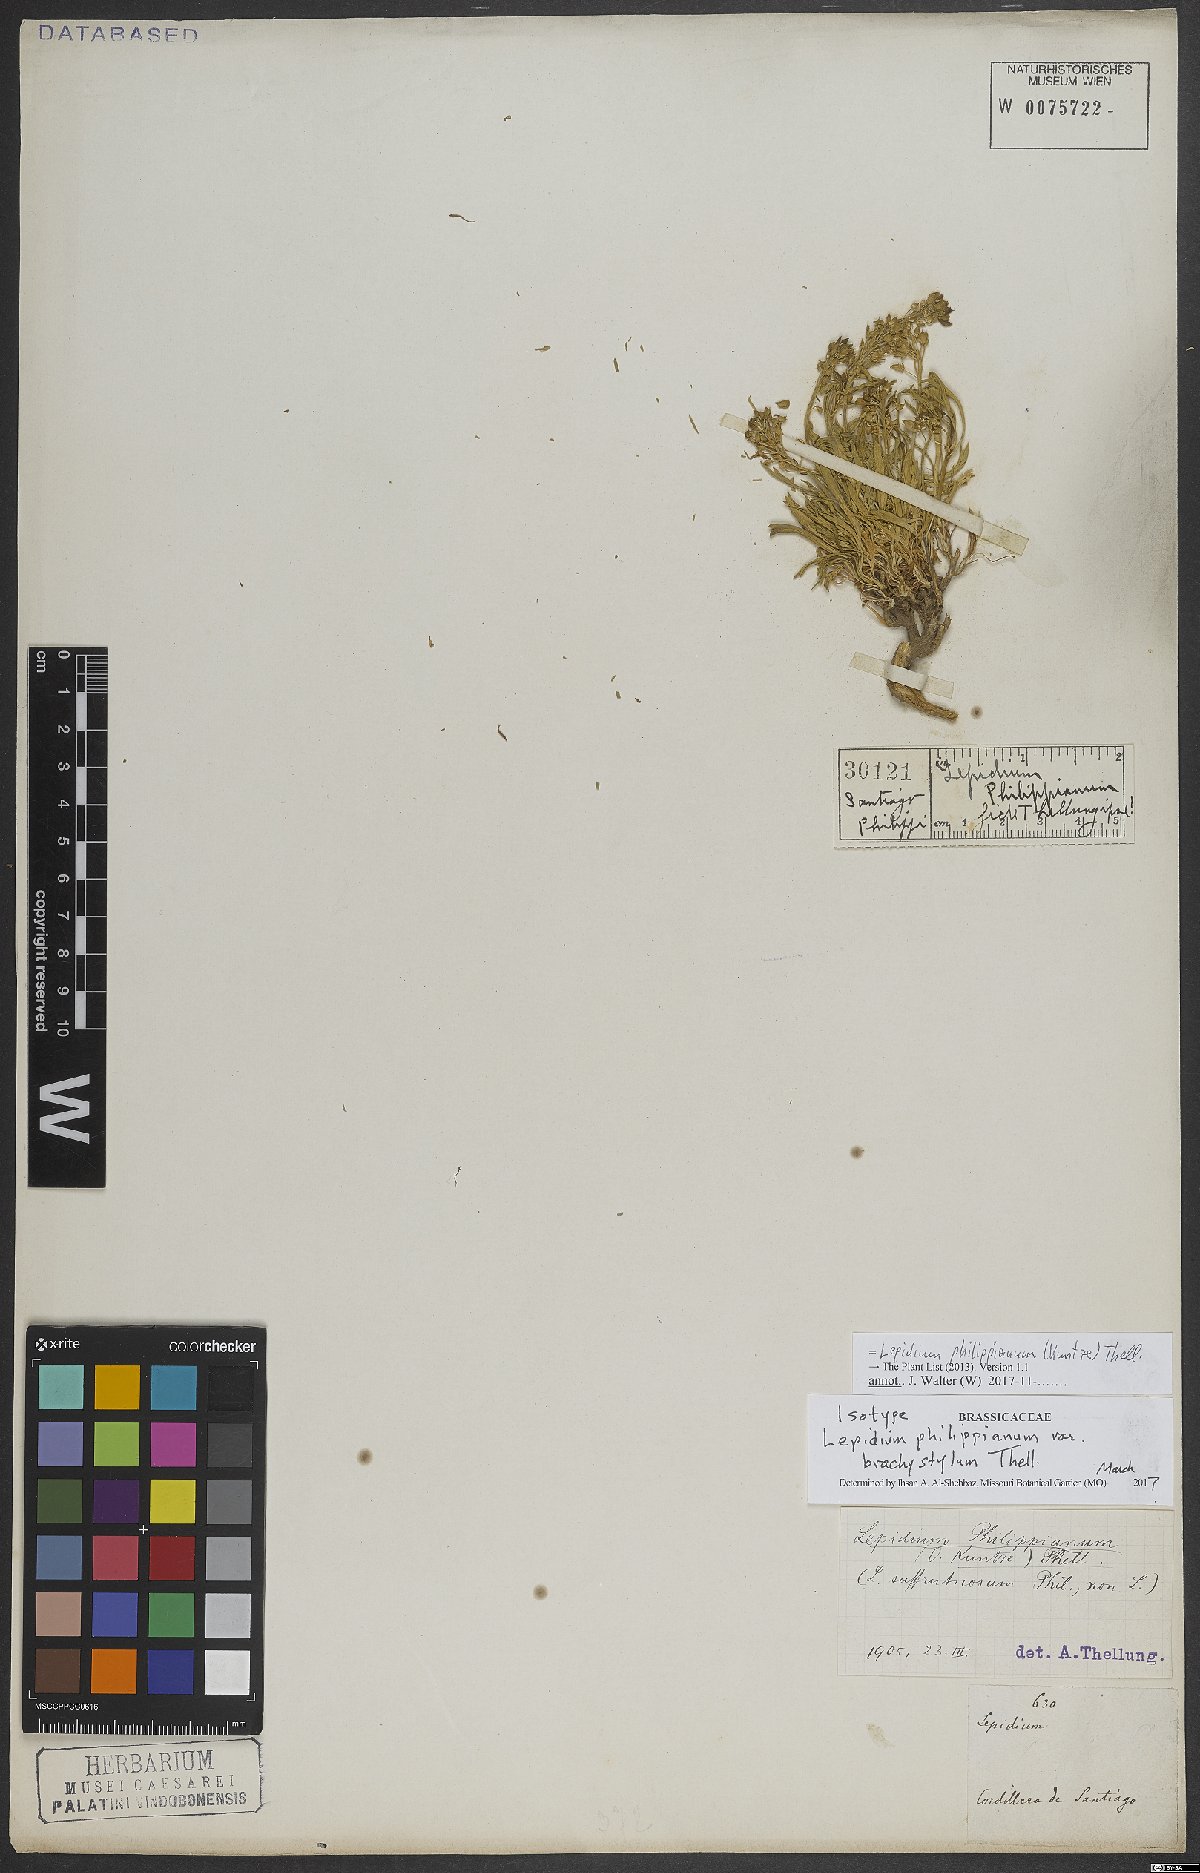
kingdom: Plantae
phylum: Tracheophyta
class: Magnoliopsida
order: Brassicales
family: Brassicaceae
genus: Lepidium
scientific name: Lepidium philippianum
